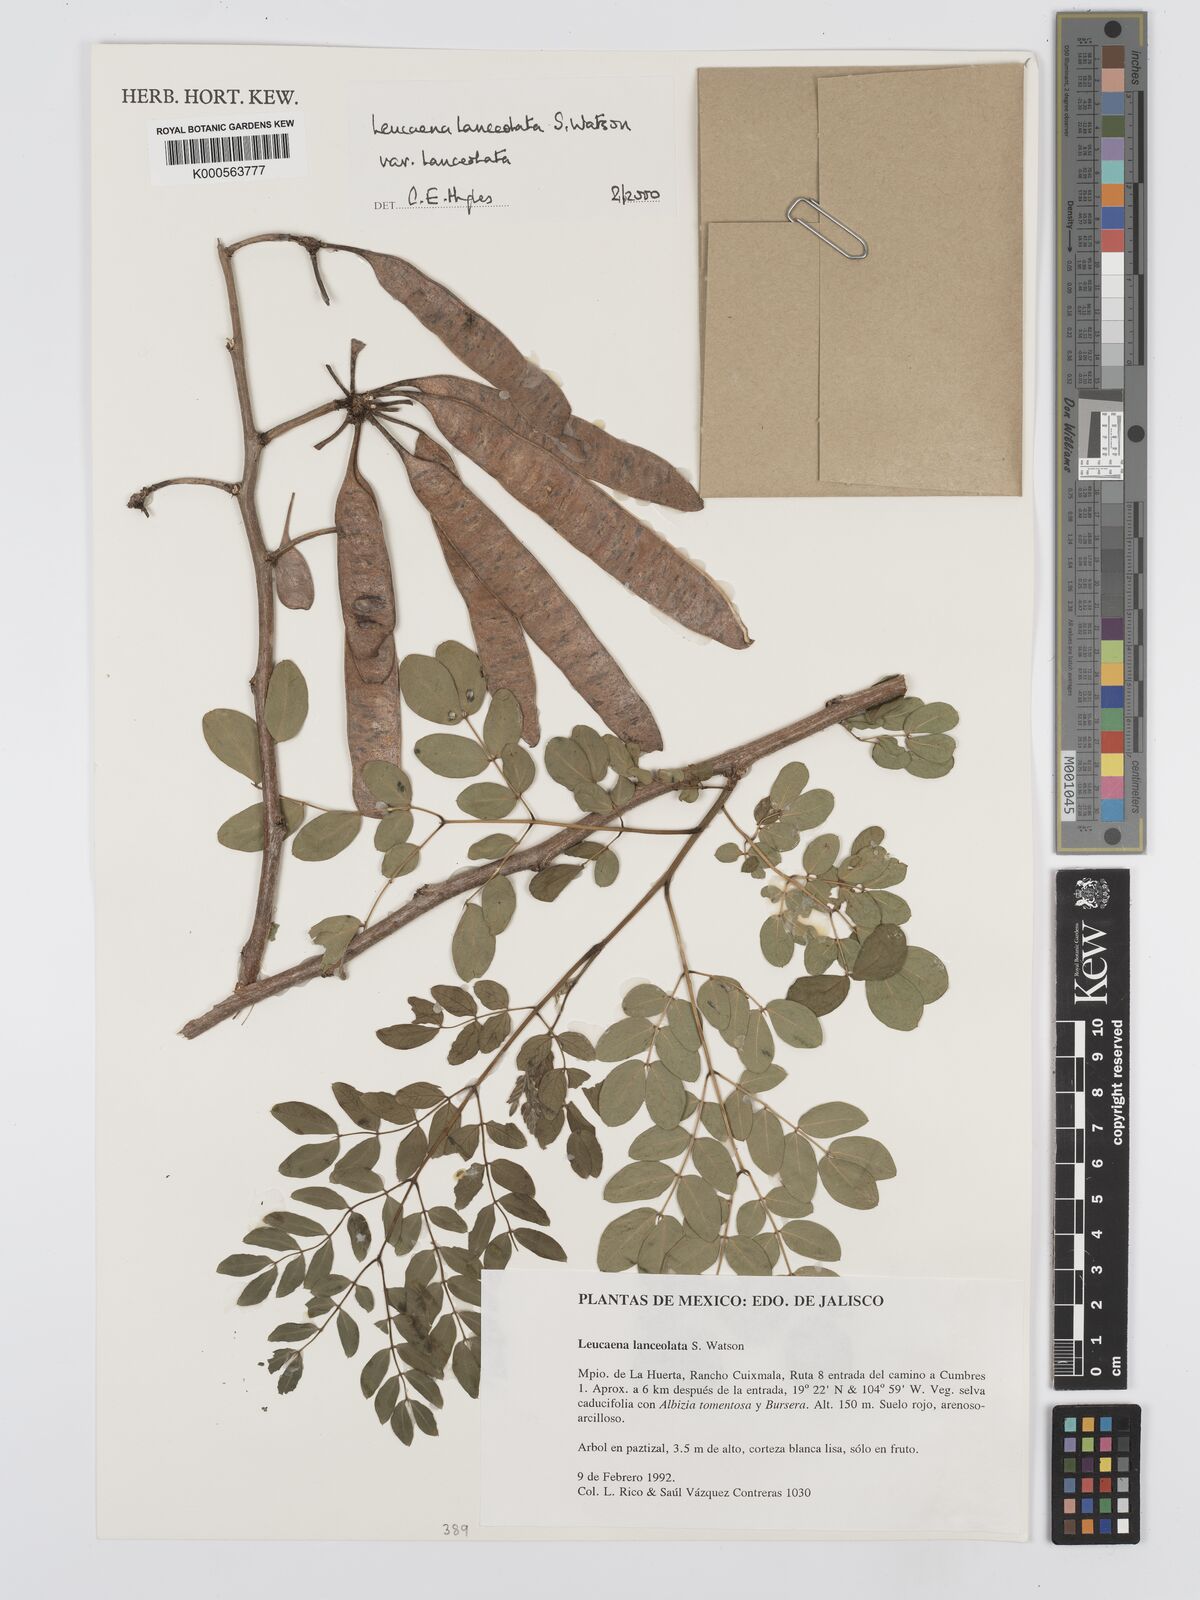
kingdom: Plantae
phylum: Tracheophyta
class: Magnoliopsida
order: Fabales
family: Fabaceae
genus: Leucaena
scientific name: Leucaena lanceolata
